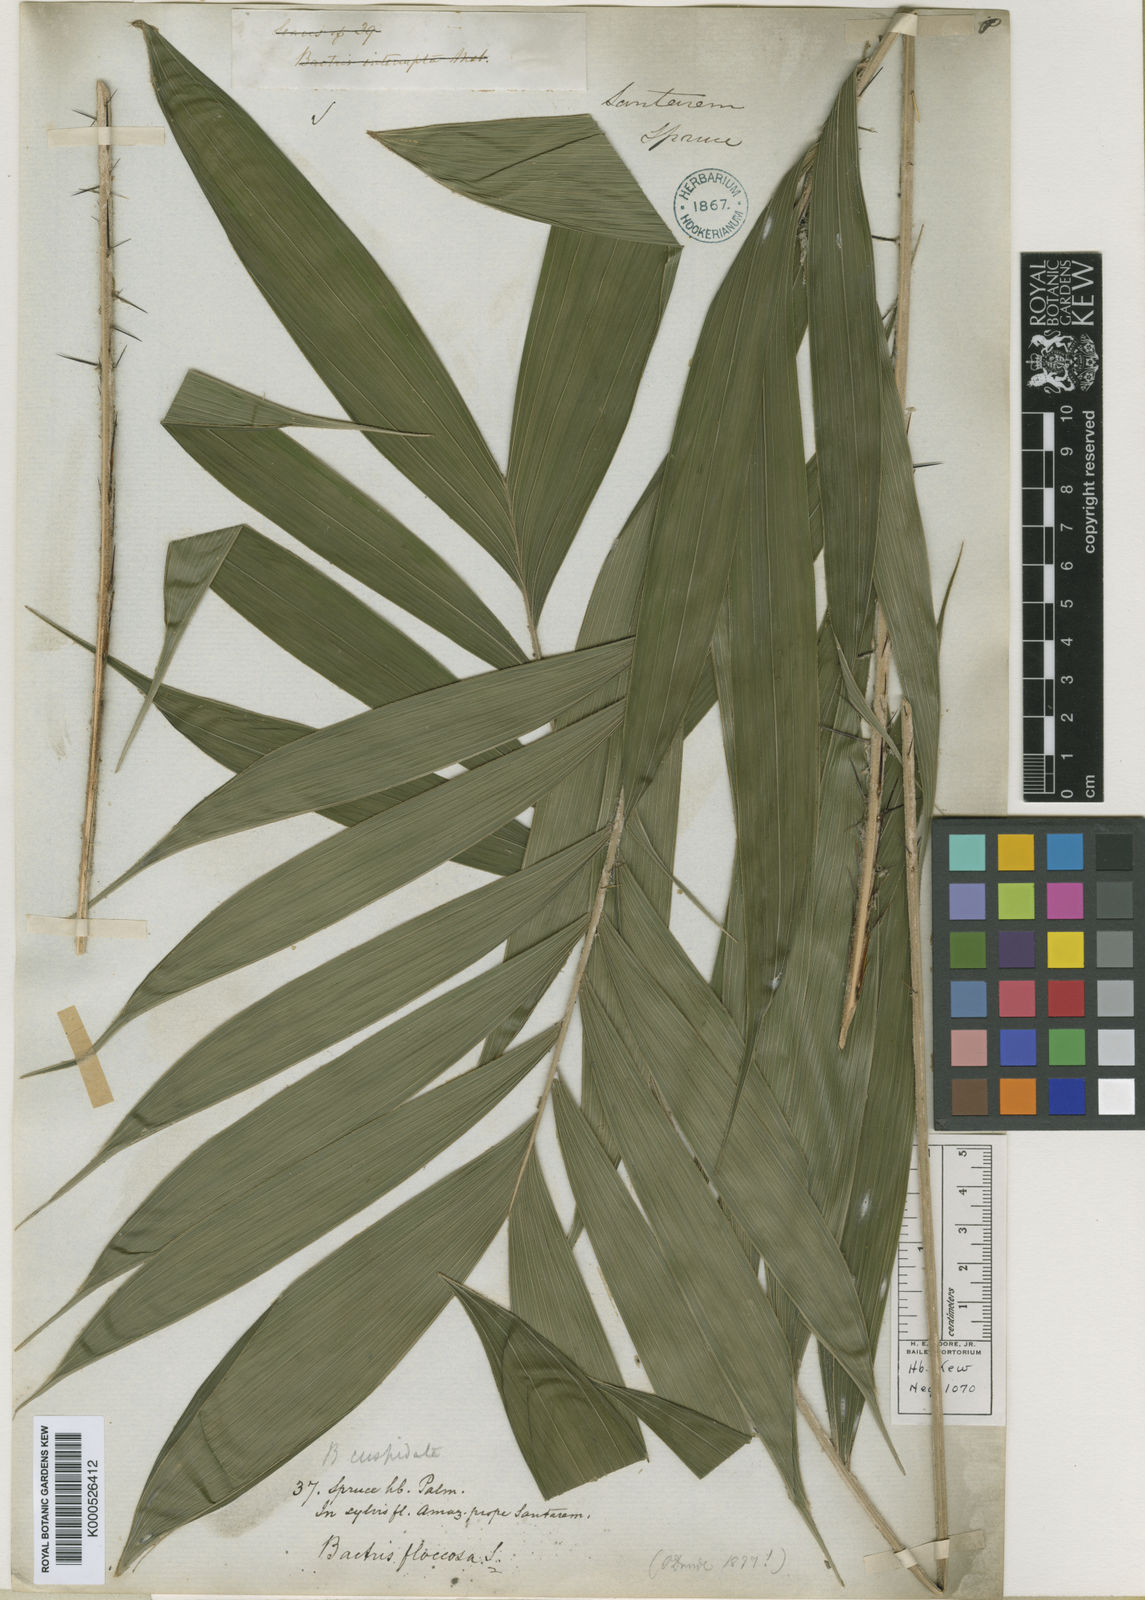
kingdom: Plantae
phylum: Tracheophyta
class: Liliopsida
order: Arecales
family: Arecaceae
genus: Bactris
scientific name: Bactris cuspidata
